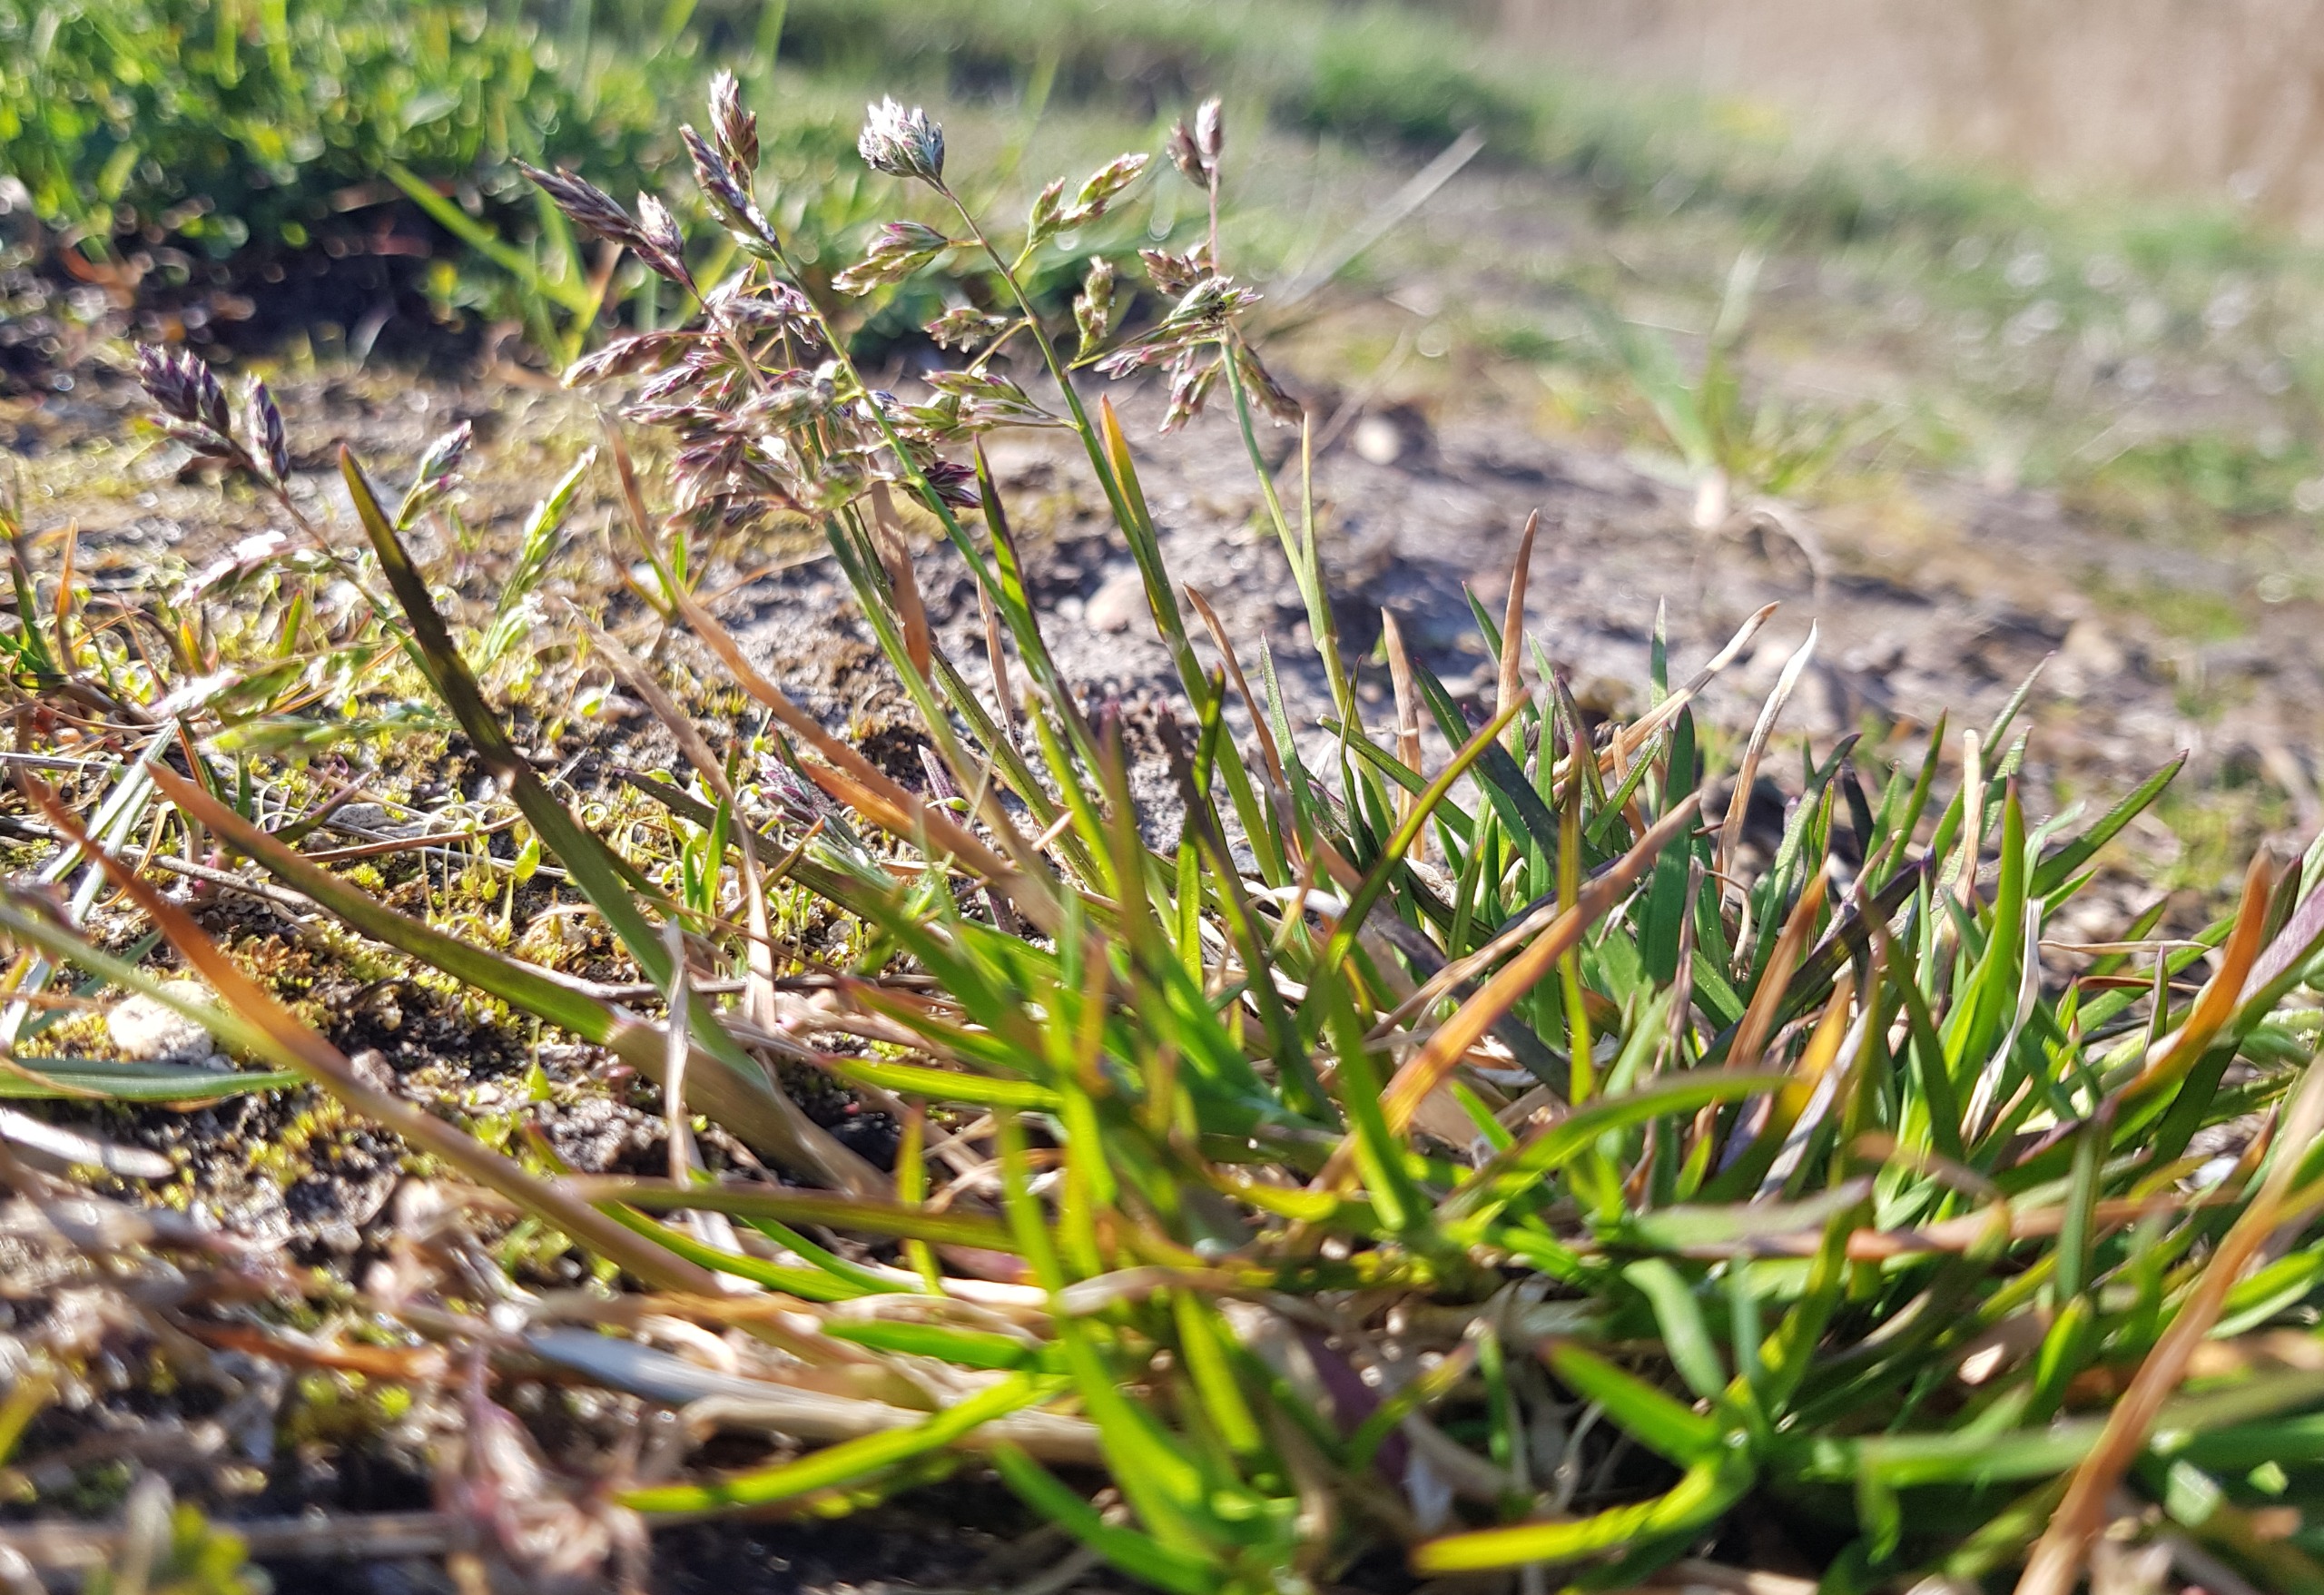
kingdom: Plantae
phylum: Tracheophyta
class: Liliopsida
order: Poales
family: Poaceae
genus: Poa
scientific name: Poa annua
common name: Enårig rapgræs
